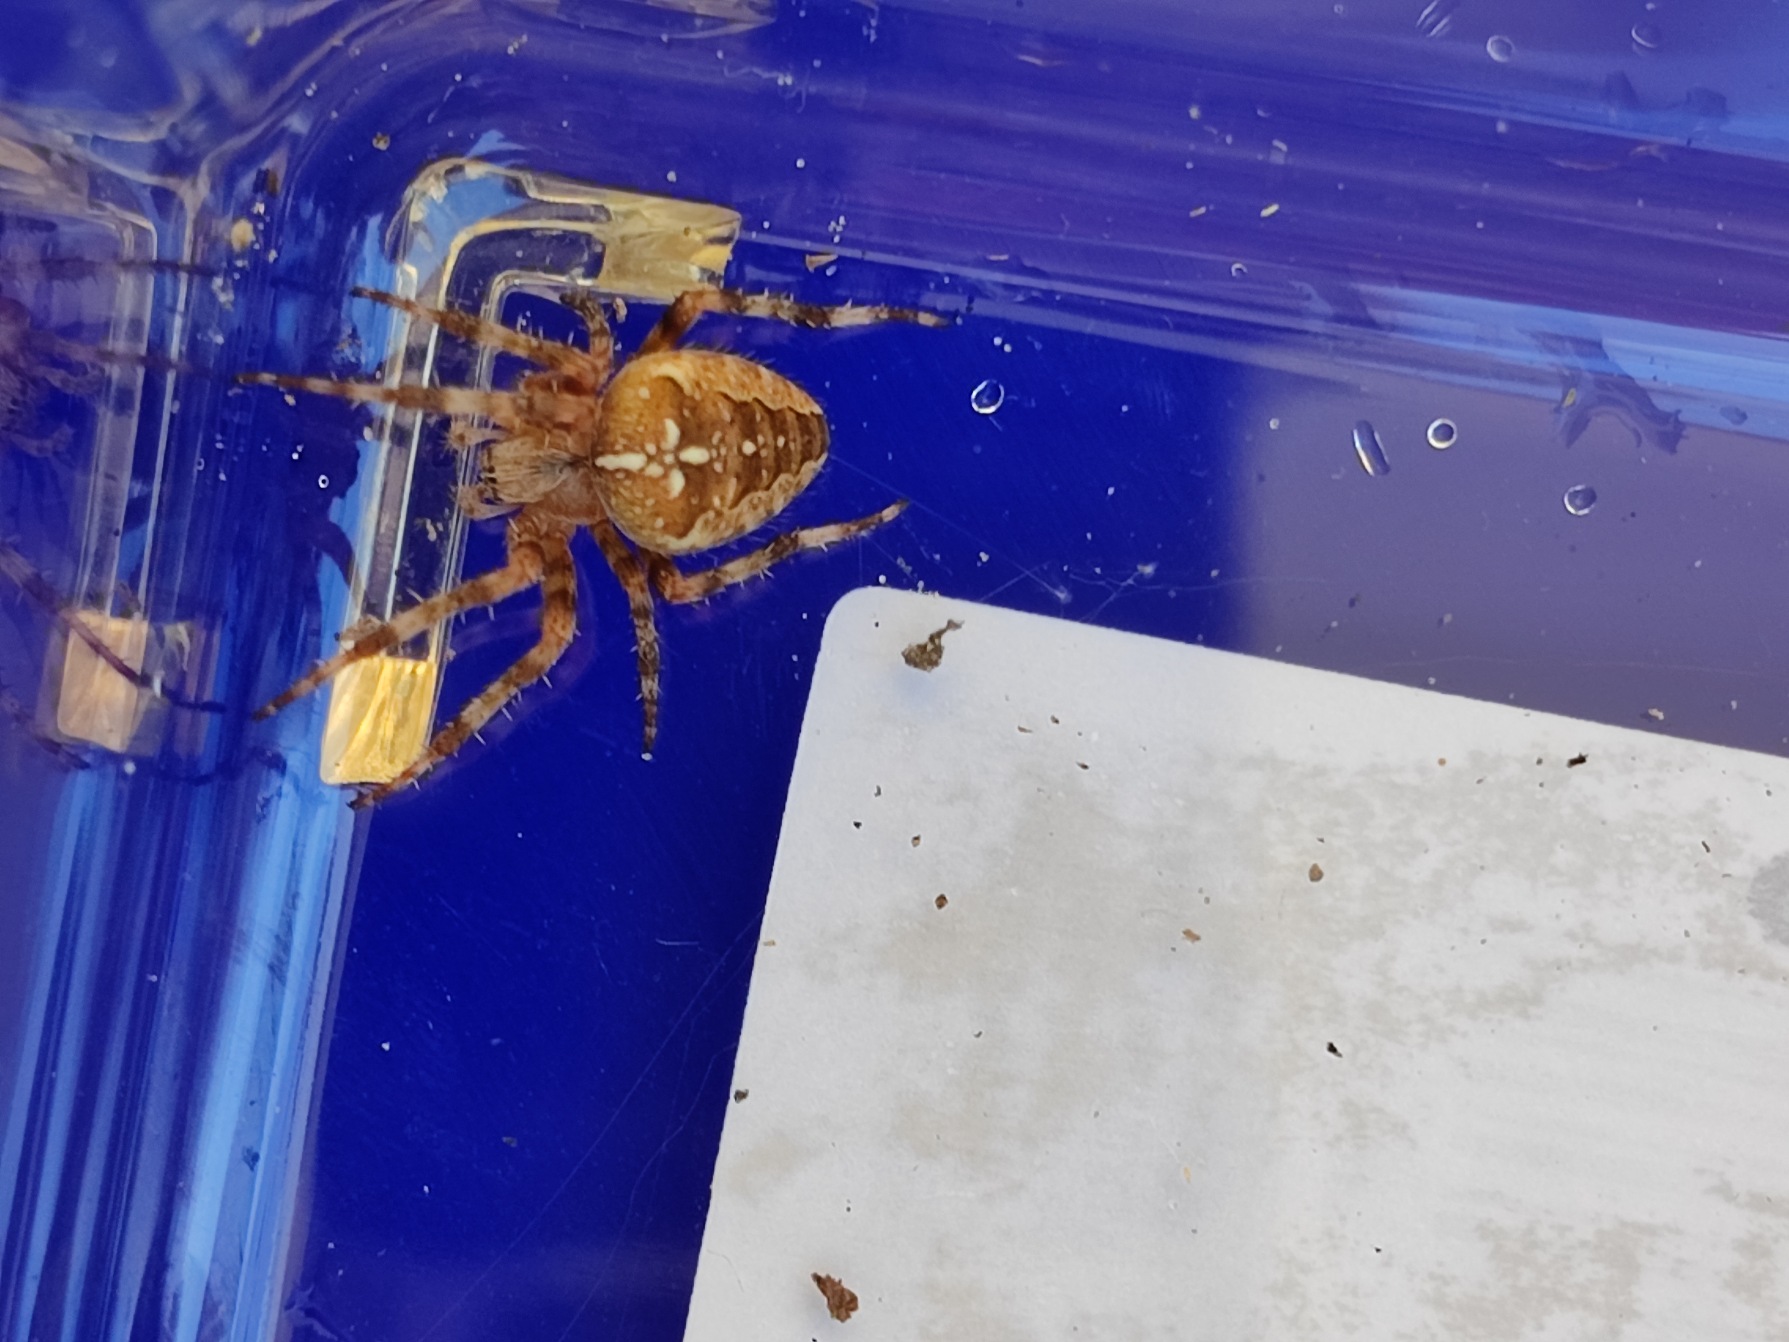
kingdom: Animalia
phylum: Arthropoda
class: Arachnida
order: Araneae
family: Araneidae
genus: Araneus
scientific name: Araneus diadematus
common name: Korsedderkop
